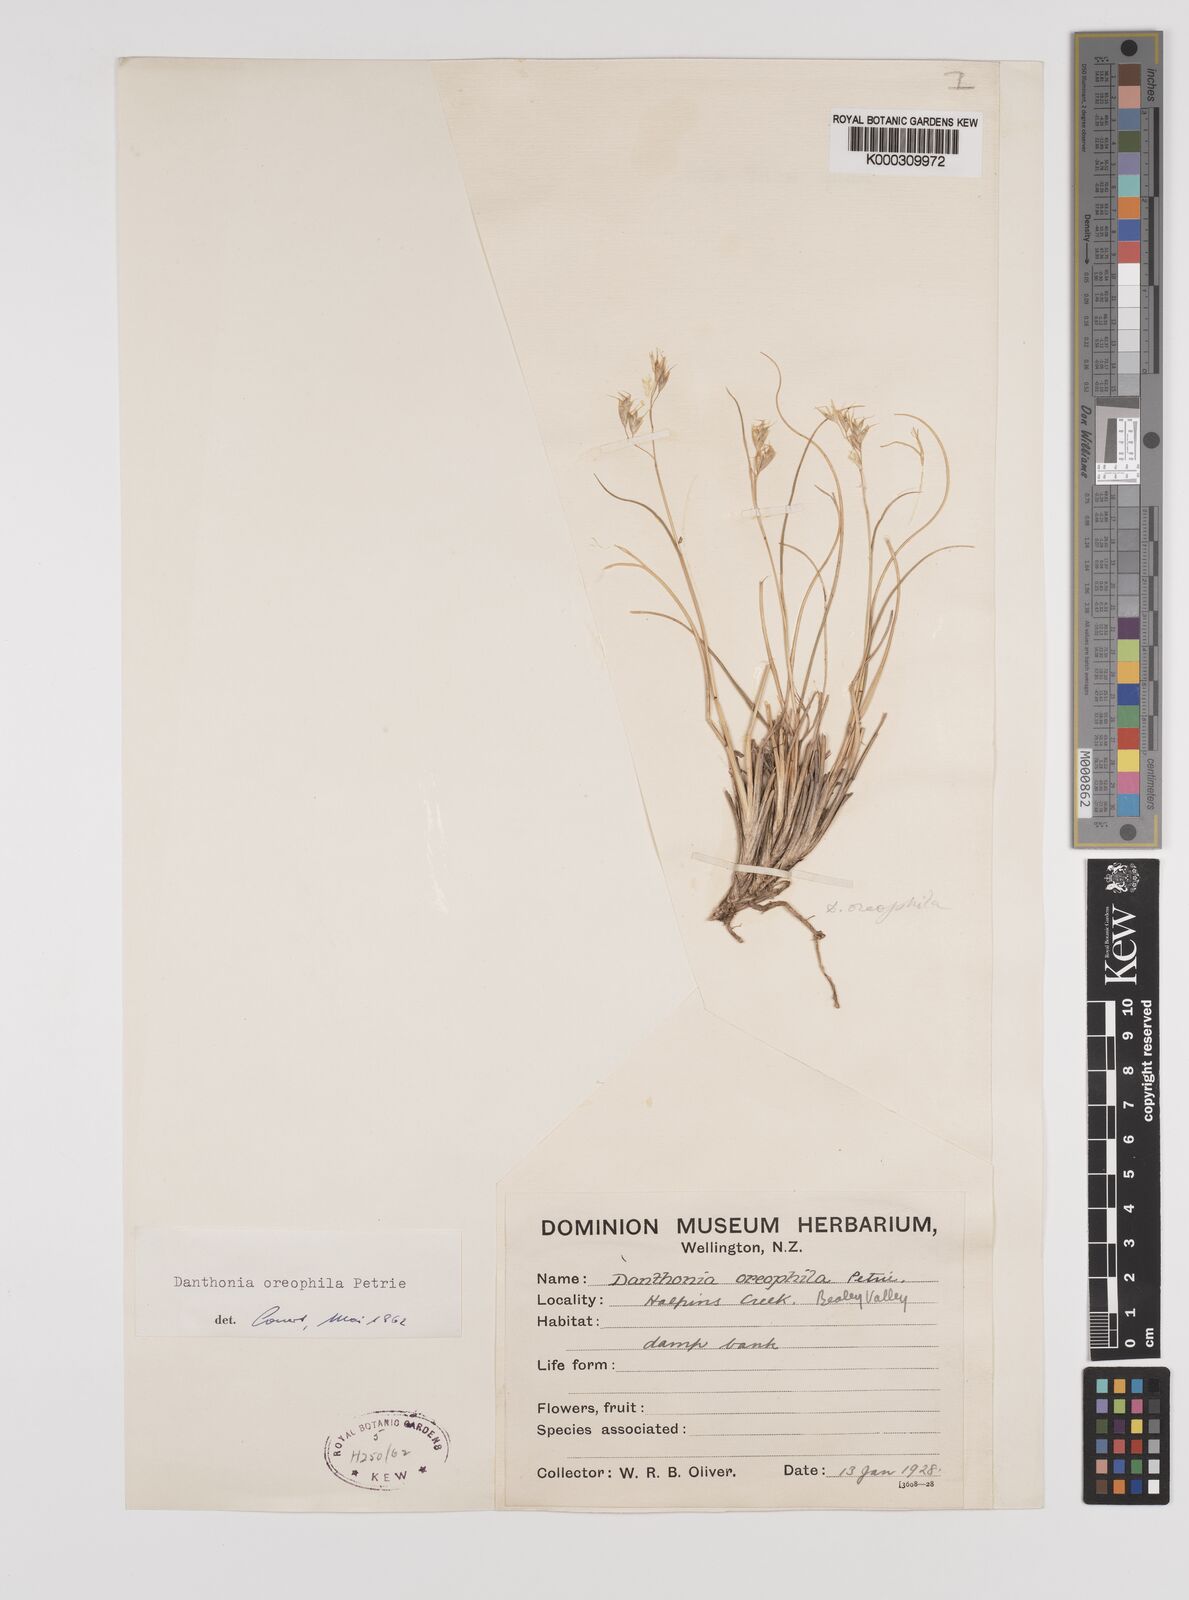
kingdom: Plantae
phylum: Tracheophyta
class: Liliopsida
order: Poales
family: Poaceae
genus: Chionochloa
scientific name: Chionochloa oreophila
